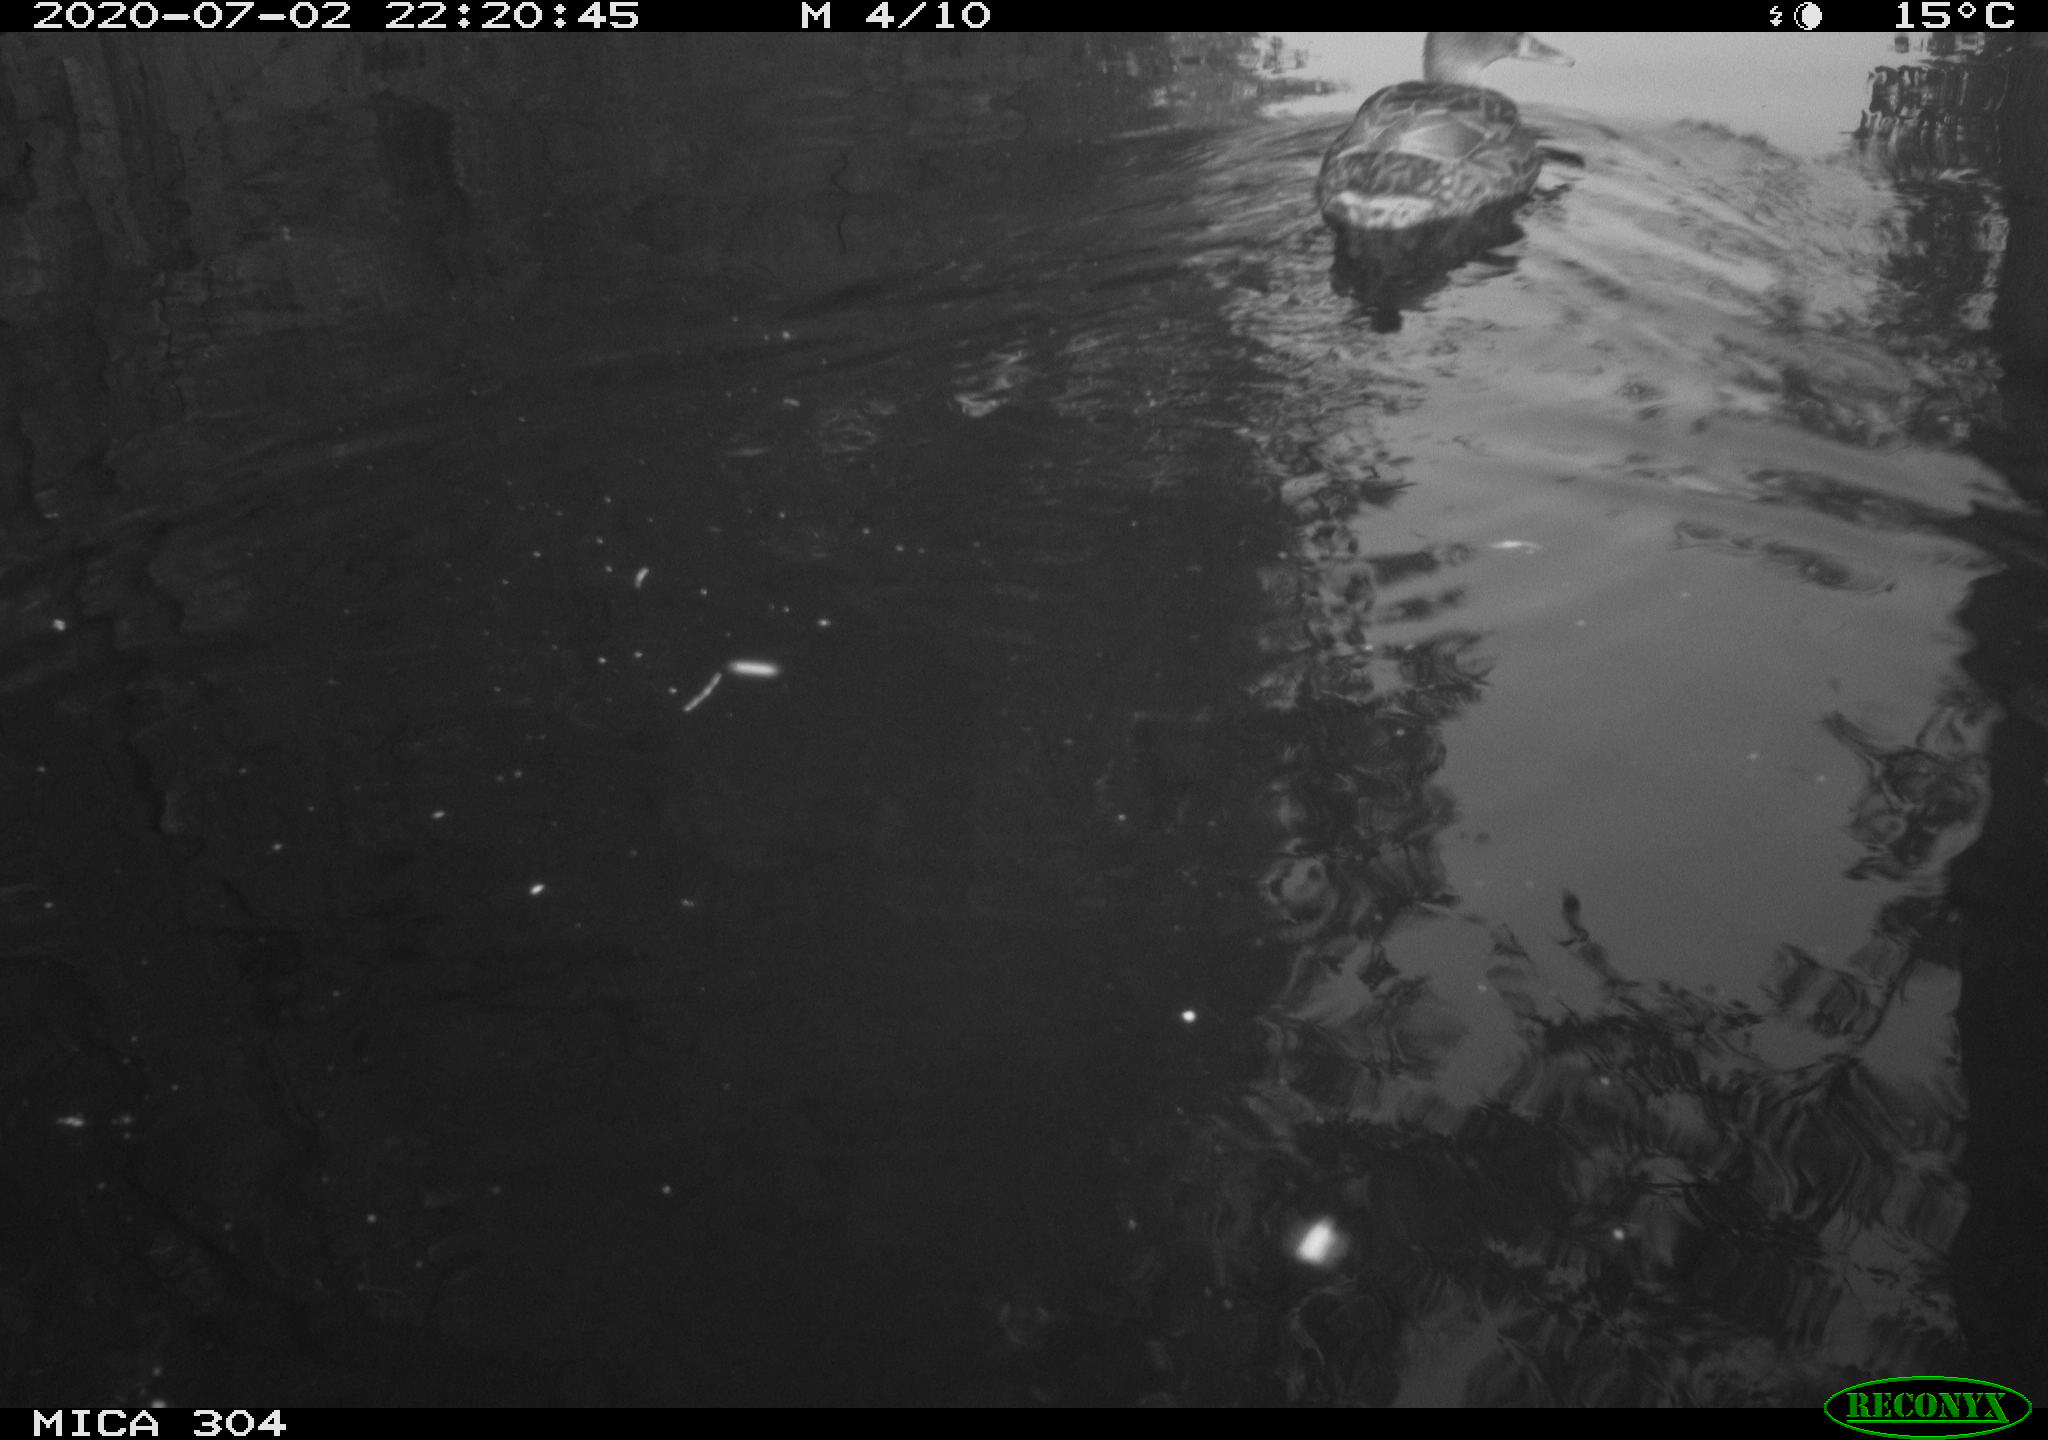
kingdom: Animalia
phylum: Chordata
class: Aves
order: Anseriformes
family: Anatidae
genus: Anas
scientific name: Anas platyrhynchos
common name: Mallard
